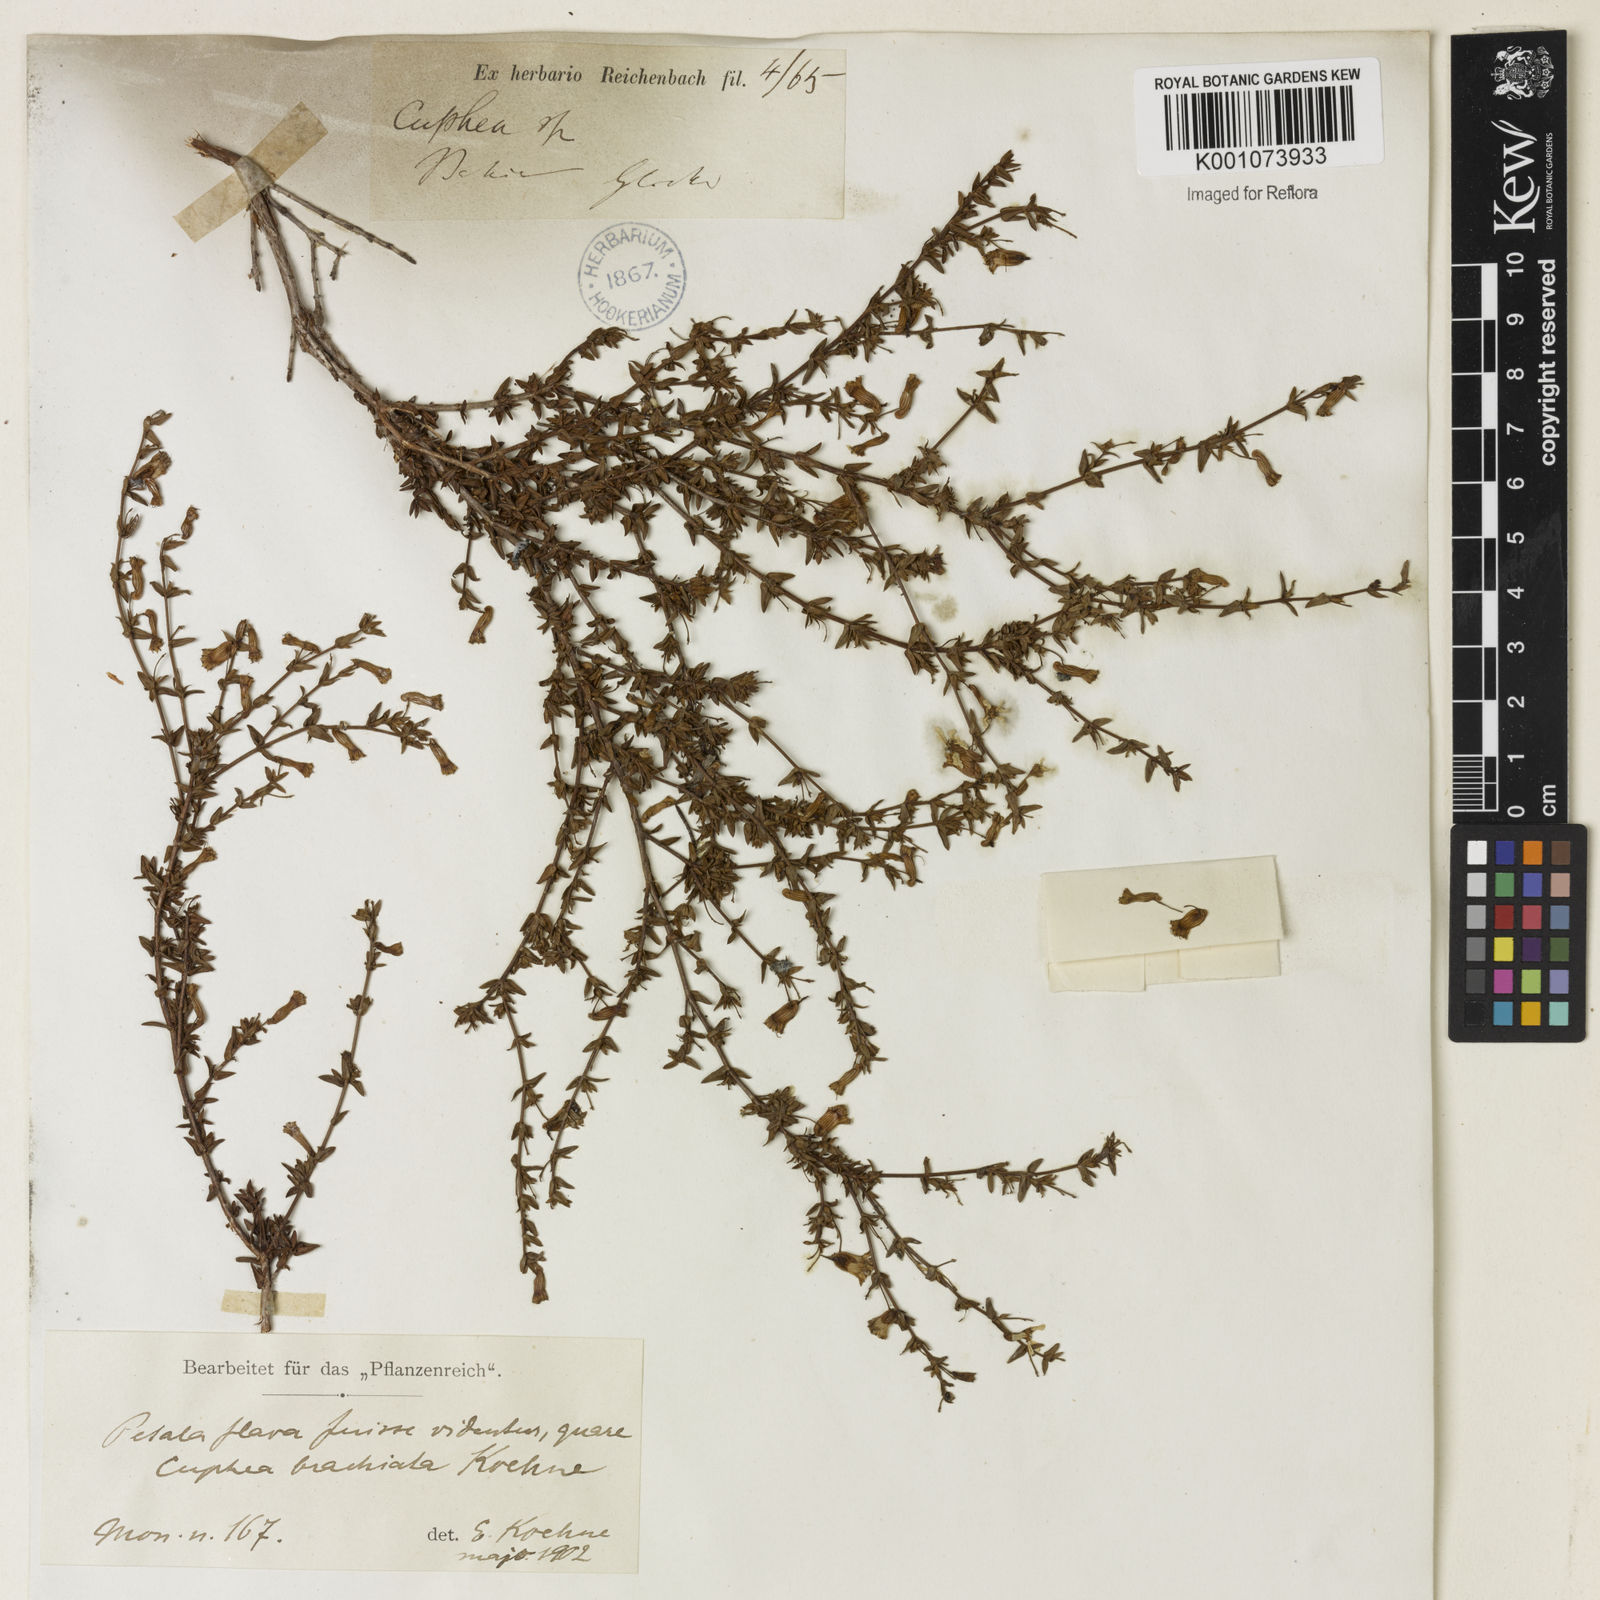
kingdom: Plantae
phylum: Tracheophyta
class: Magnoliopsida
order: Myrtales
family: Lythraceae
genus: Cuphea
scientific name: Cuphea brachiata
